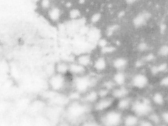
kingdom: Animalia
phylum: Chordata
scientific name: Chordata
